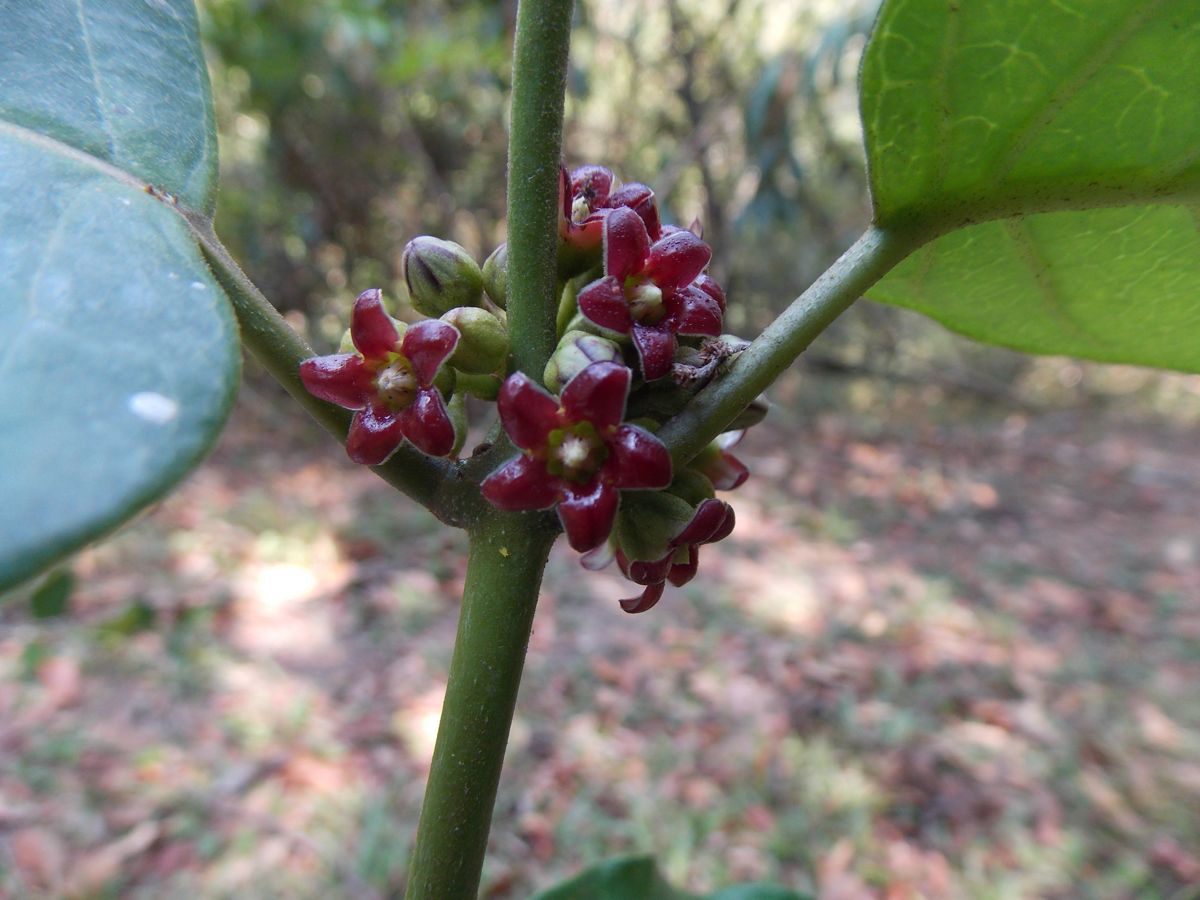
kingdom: Plantae
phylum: Tracheophyta
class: Magnoliopsida
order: Gentianales
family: Apocynaceae
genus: Marsdenia
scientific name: Marsdenia
